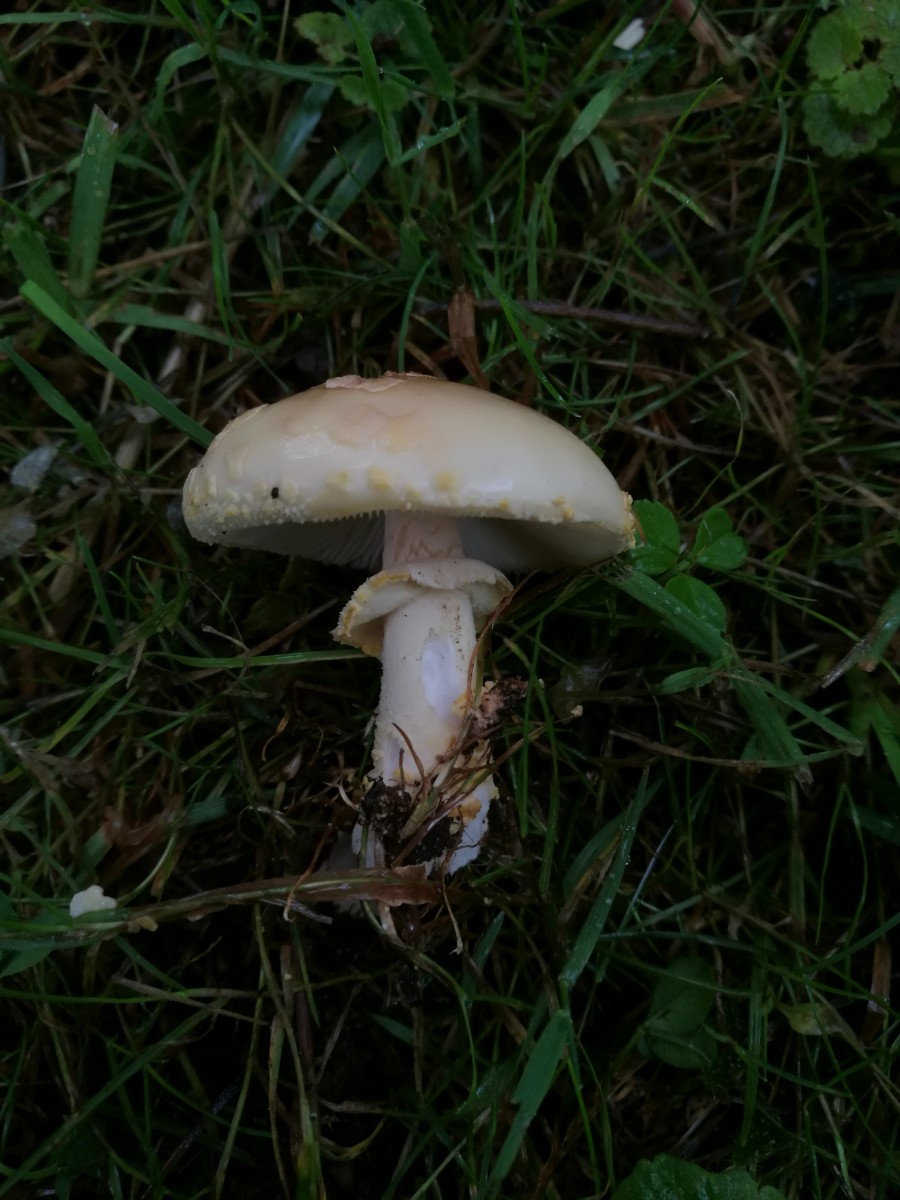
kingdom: Fungi
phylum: Basidiomycota
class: Agaricomycetes
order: Agaricales
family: Amanitaceae
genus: Amanita
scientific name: Amanita franchetii
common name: gulrandet fluesvamp
